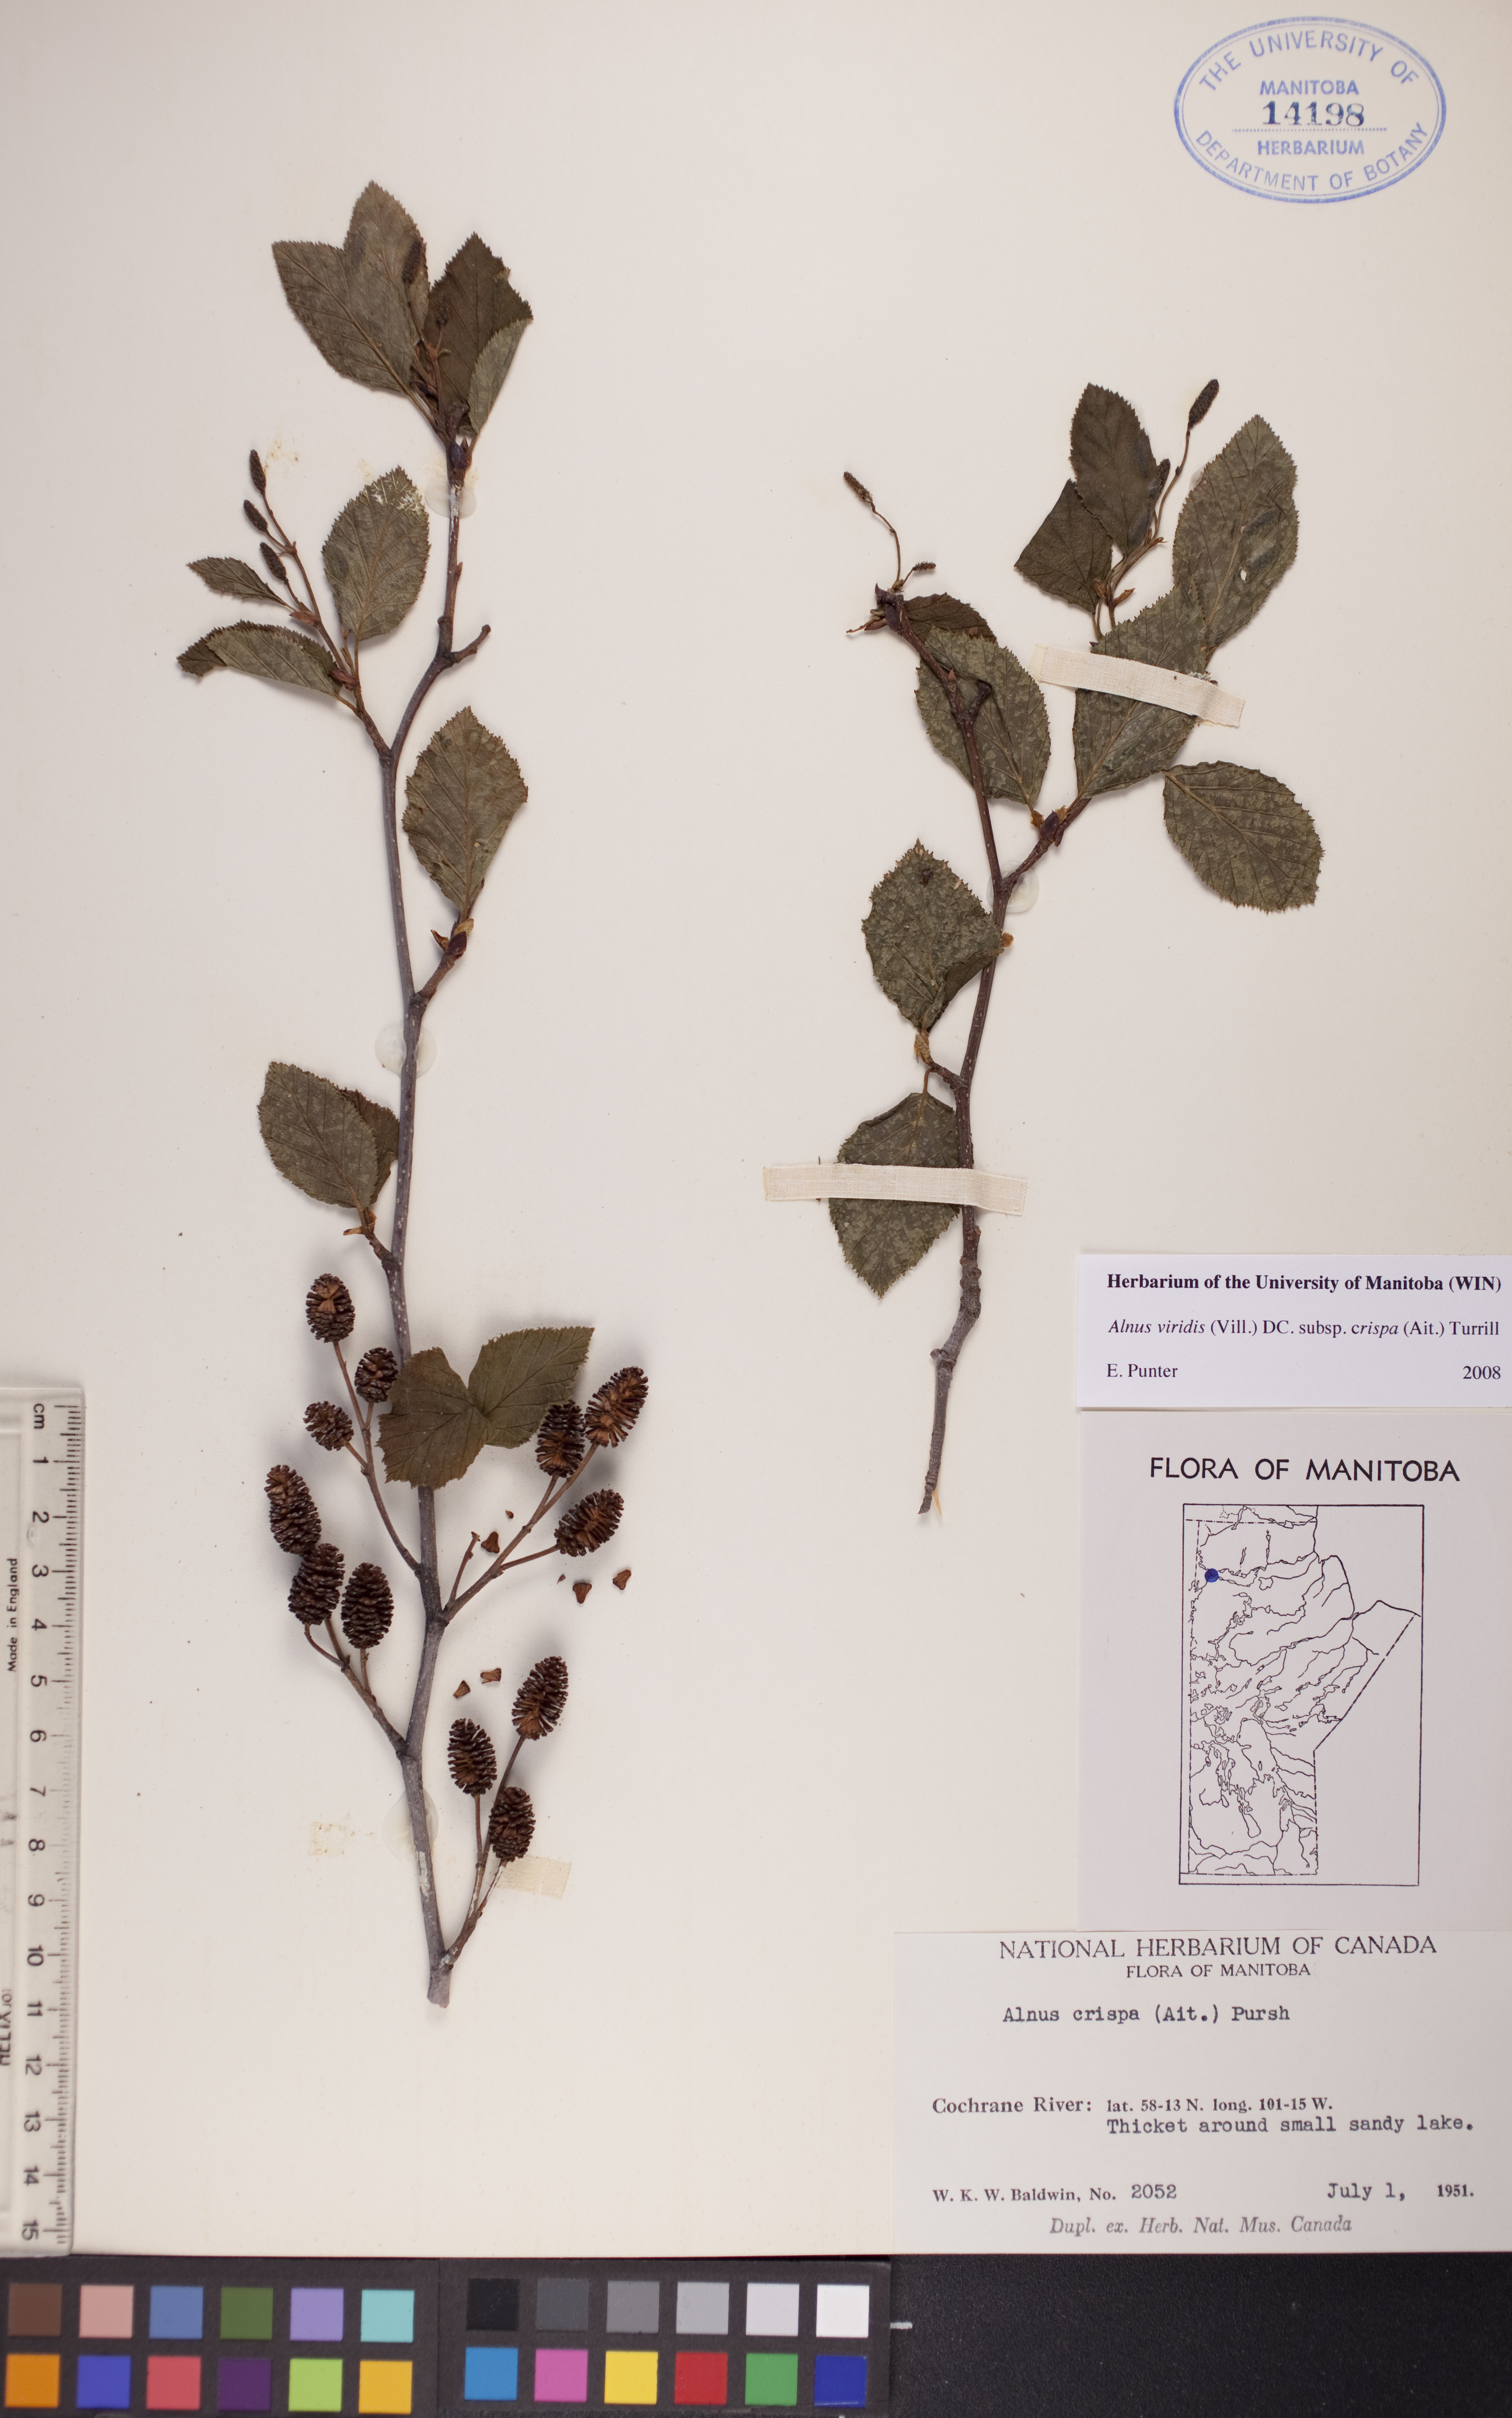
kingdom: Plantae
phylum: Tracheophyta
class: Magnoliopsida
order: Fagales
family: Betulaceae
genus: Alnus
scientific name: Alnus alnobetula
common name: Green alder
